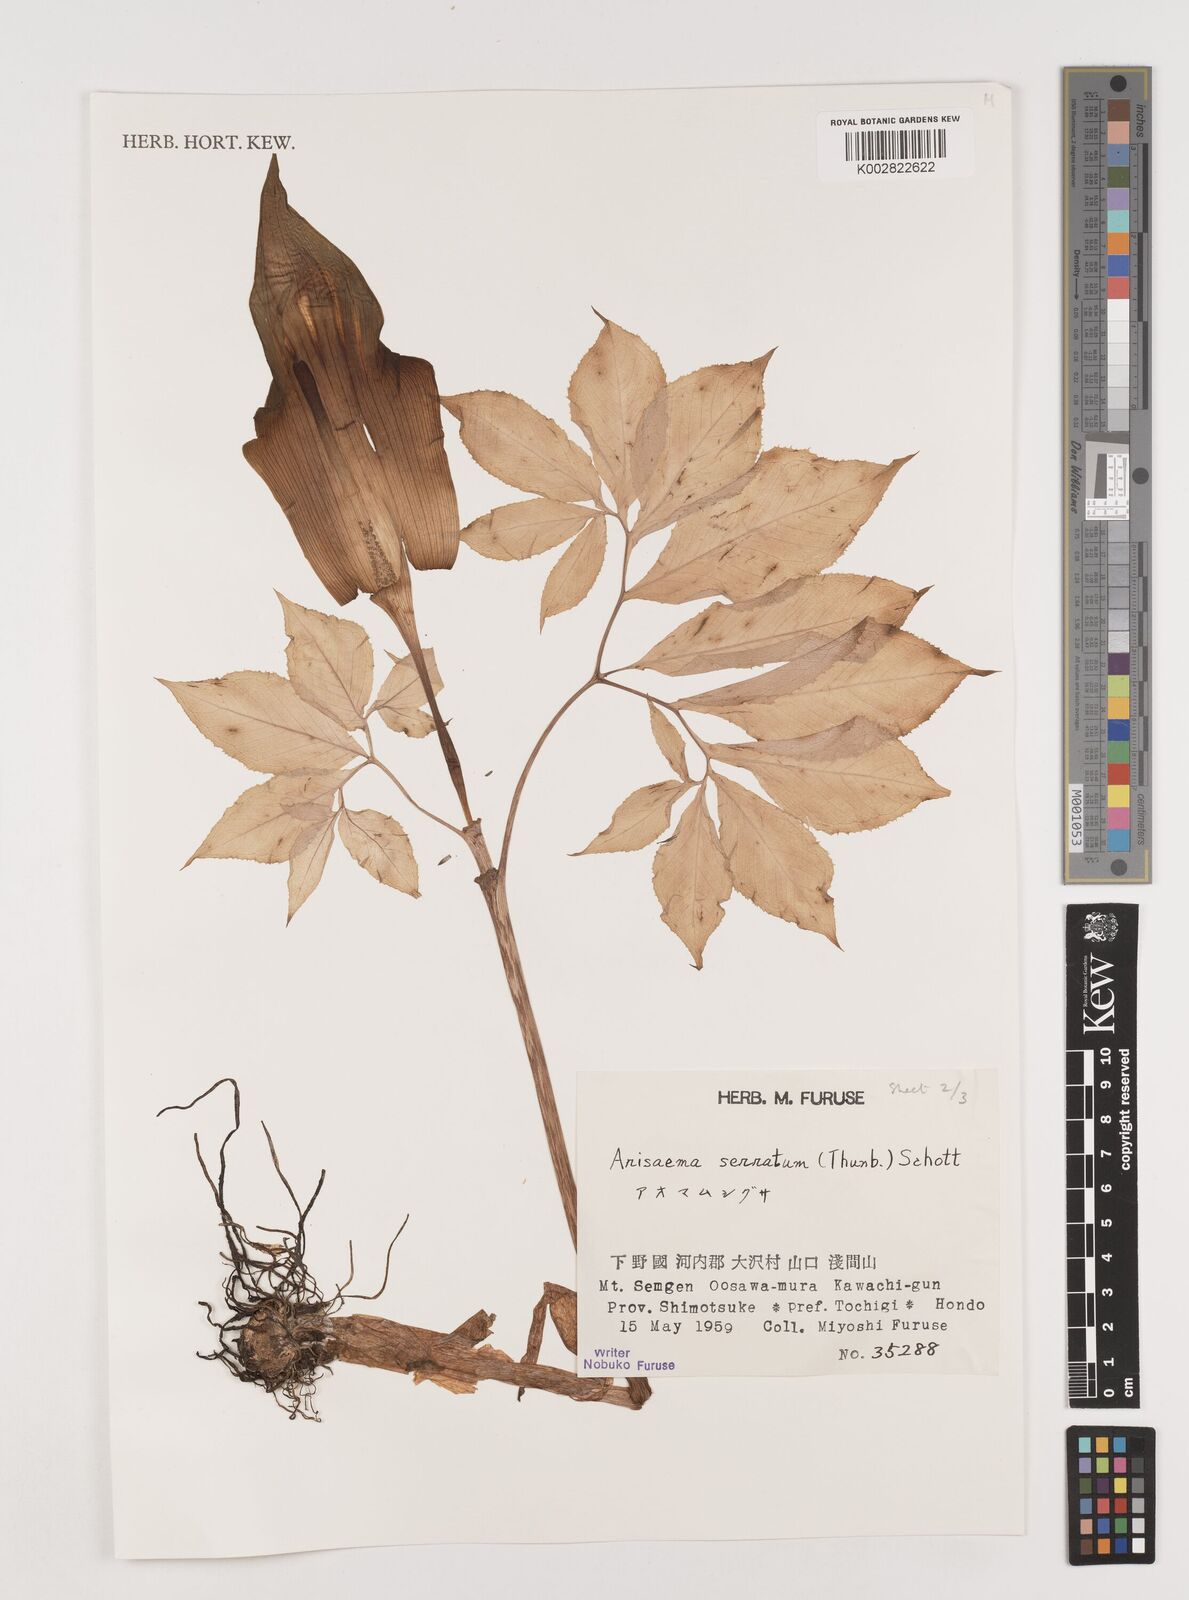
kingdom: Plantae
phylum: Tracheophyta
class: Liliopsida
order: Alismatales
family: Araceae
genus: Arisaema
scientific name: Arisaema serratum
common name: Japanese arisaema
